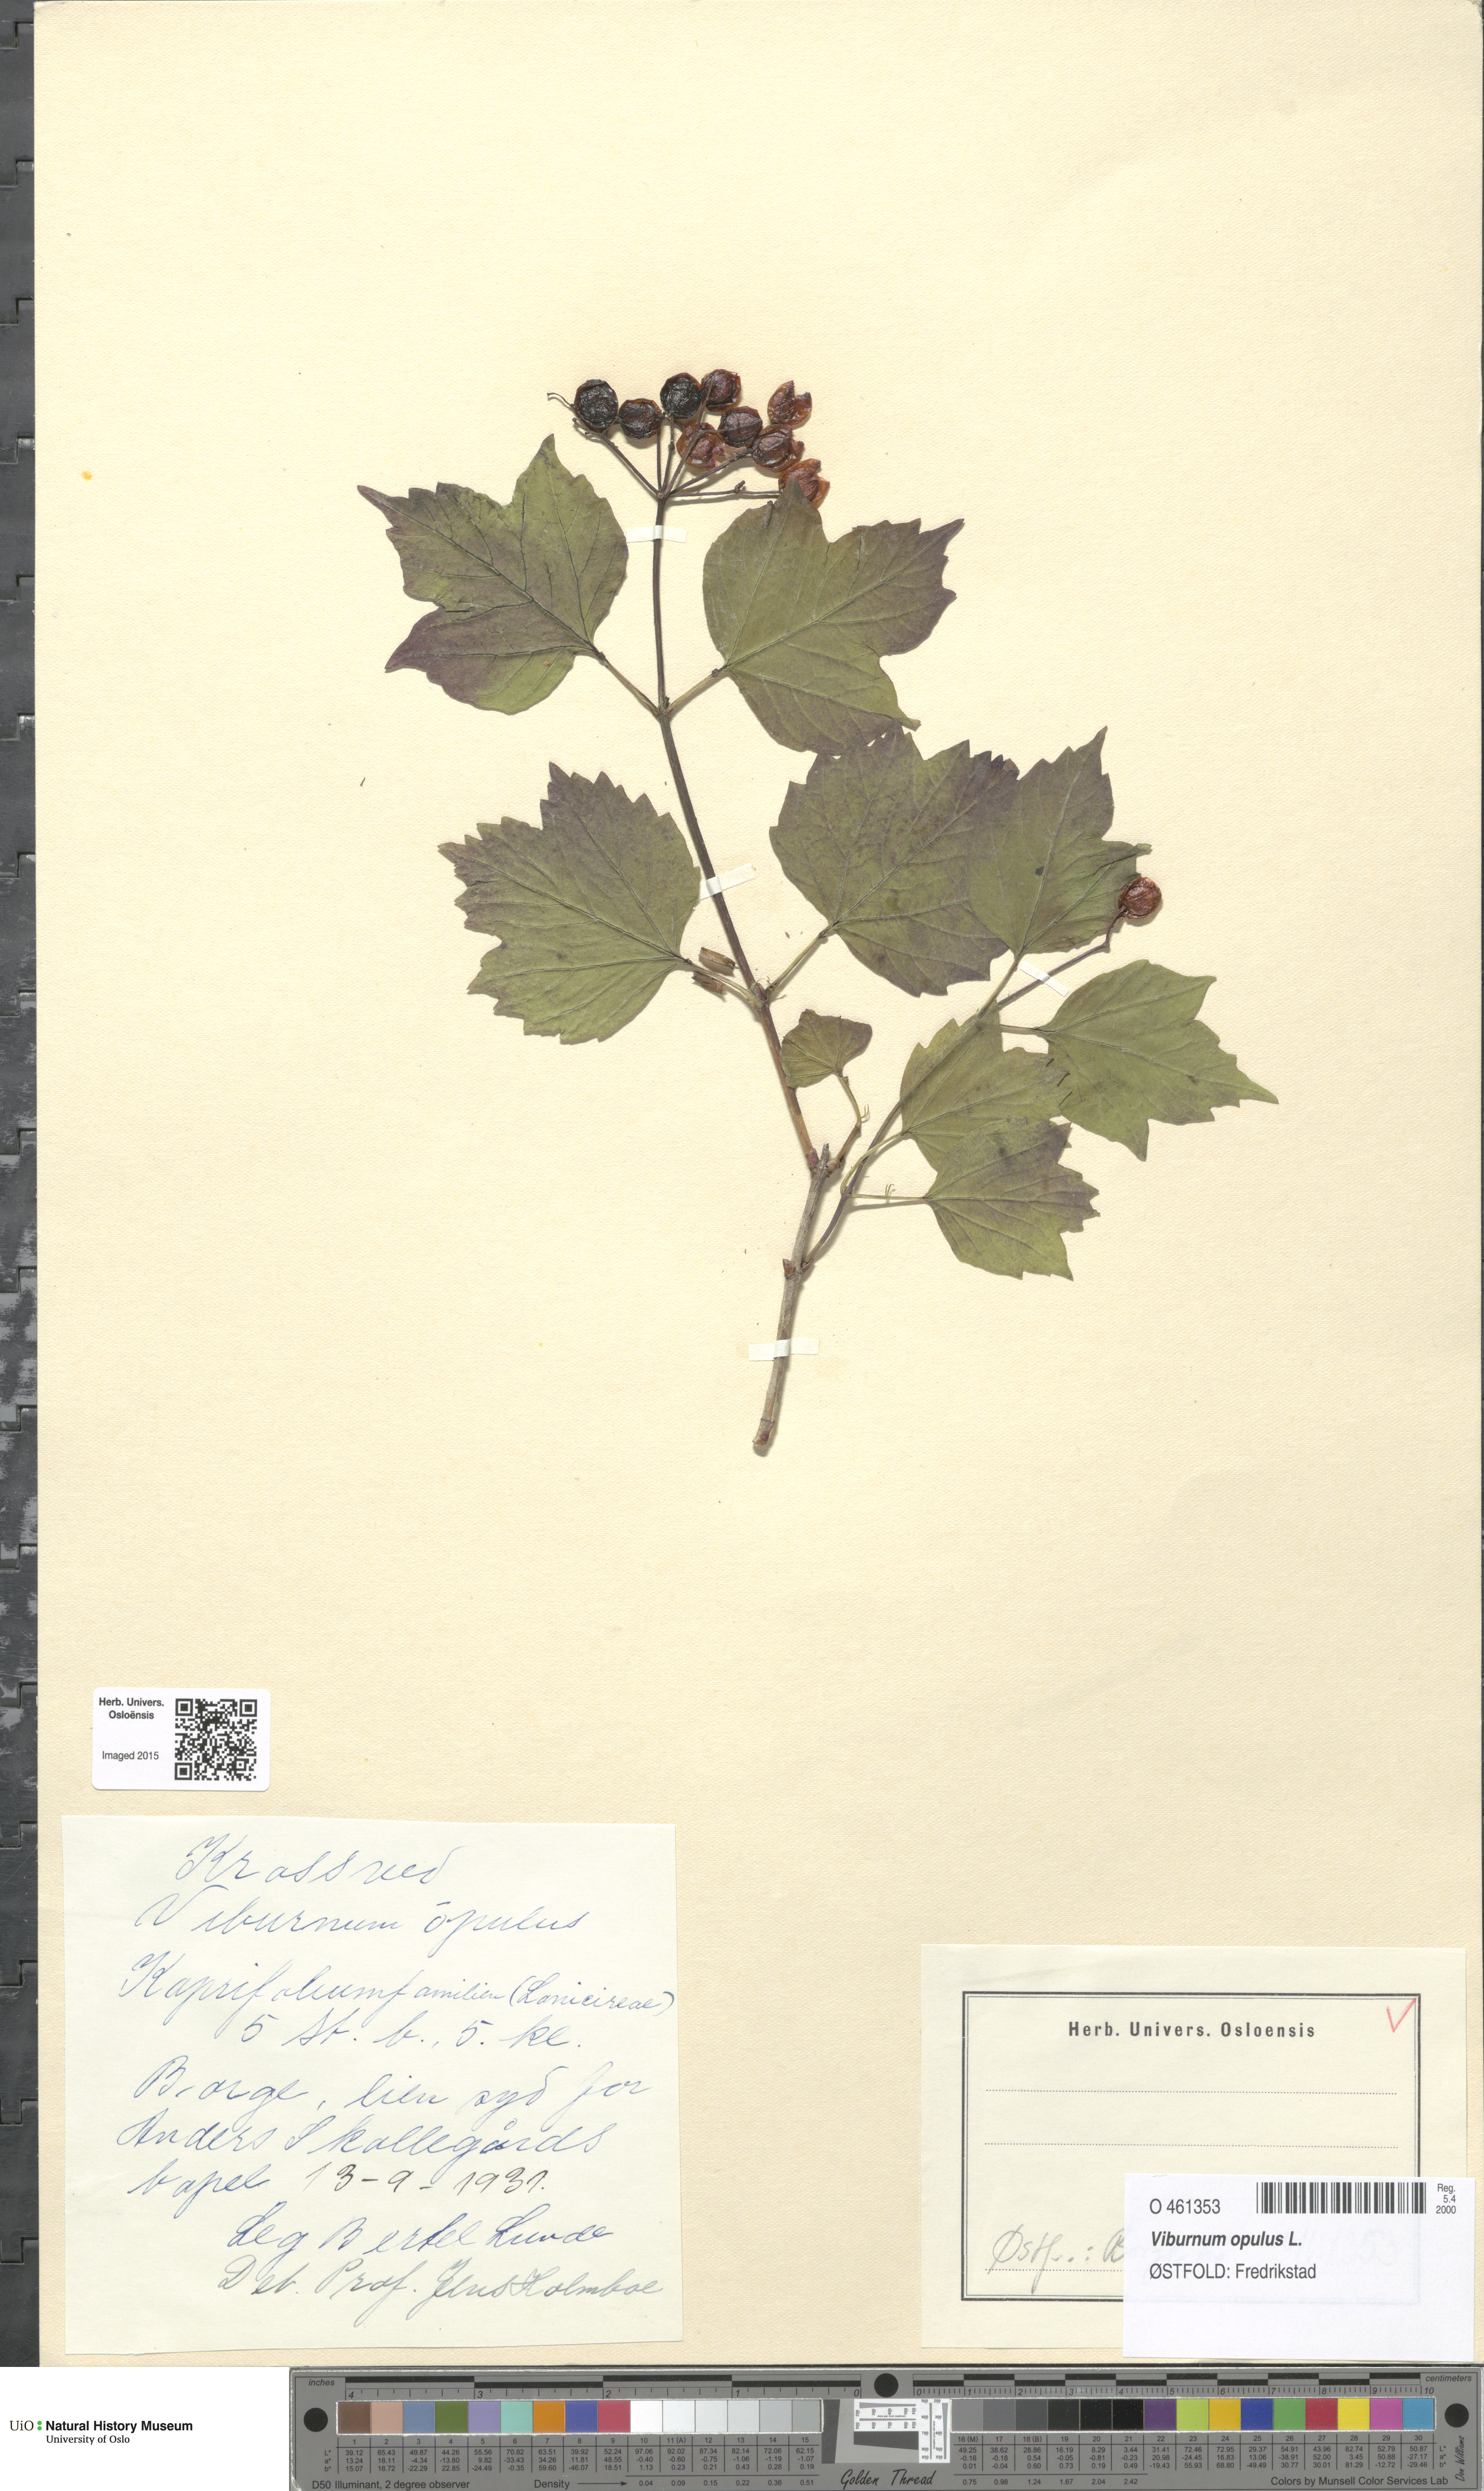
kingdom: Plantae
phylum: Tracheophyta
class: Magnoliopsida
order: Dipsacales
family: Viburnaceae
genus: Viburnum
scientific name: Viburnum opulus
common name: Guelder-rose
